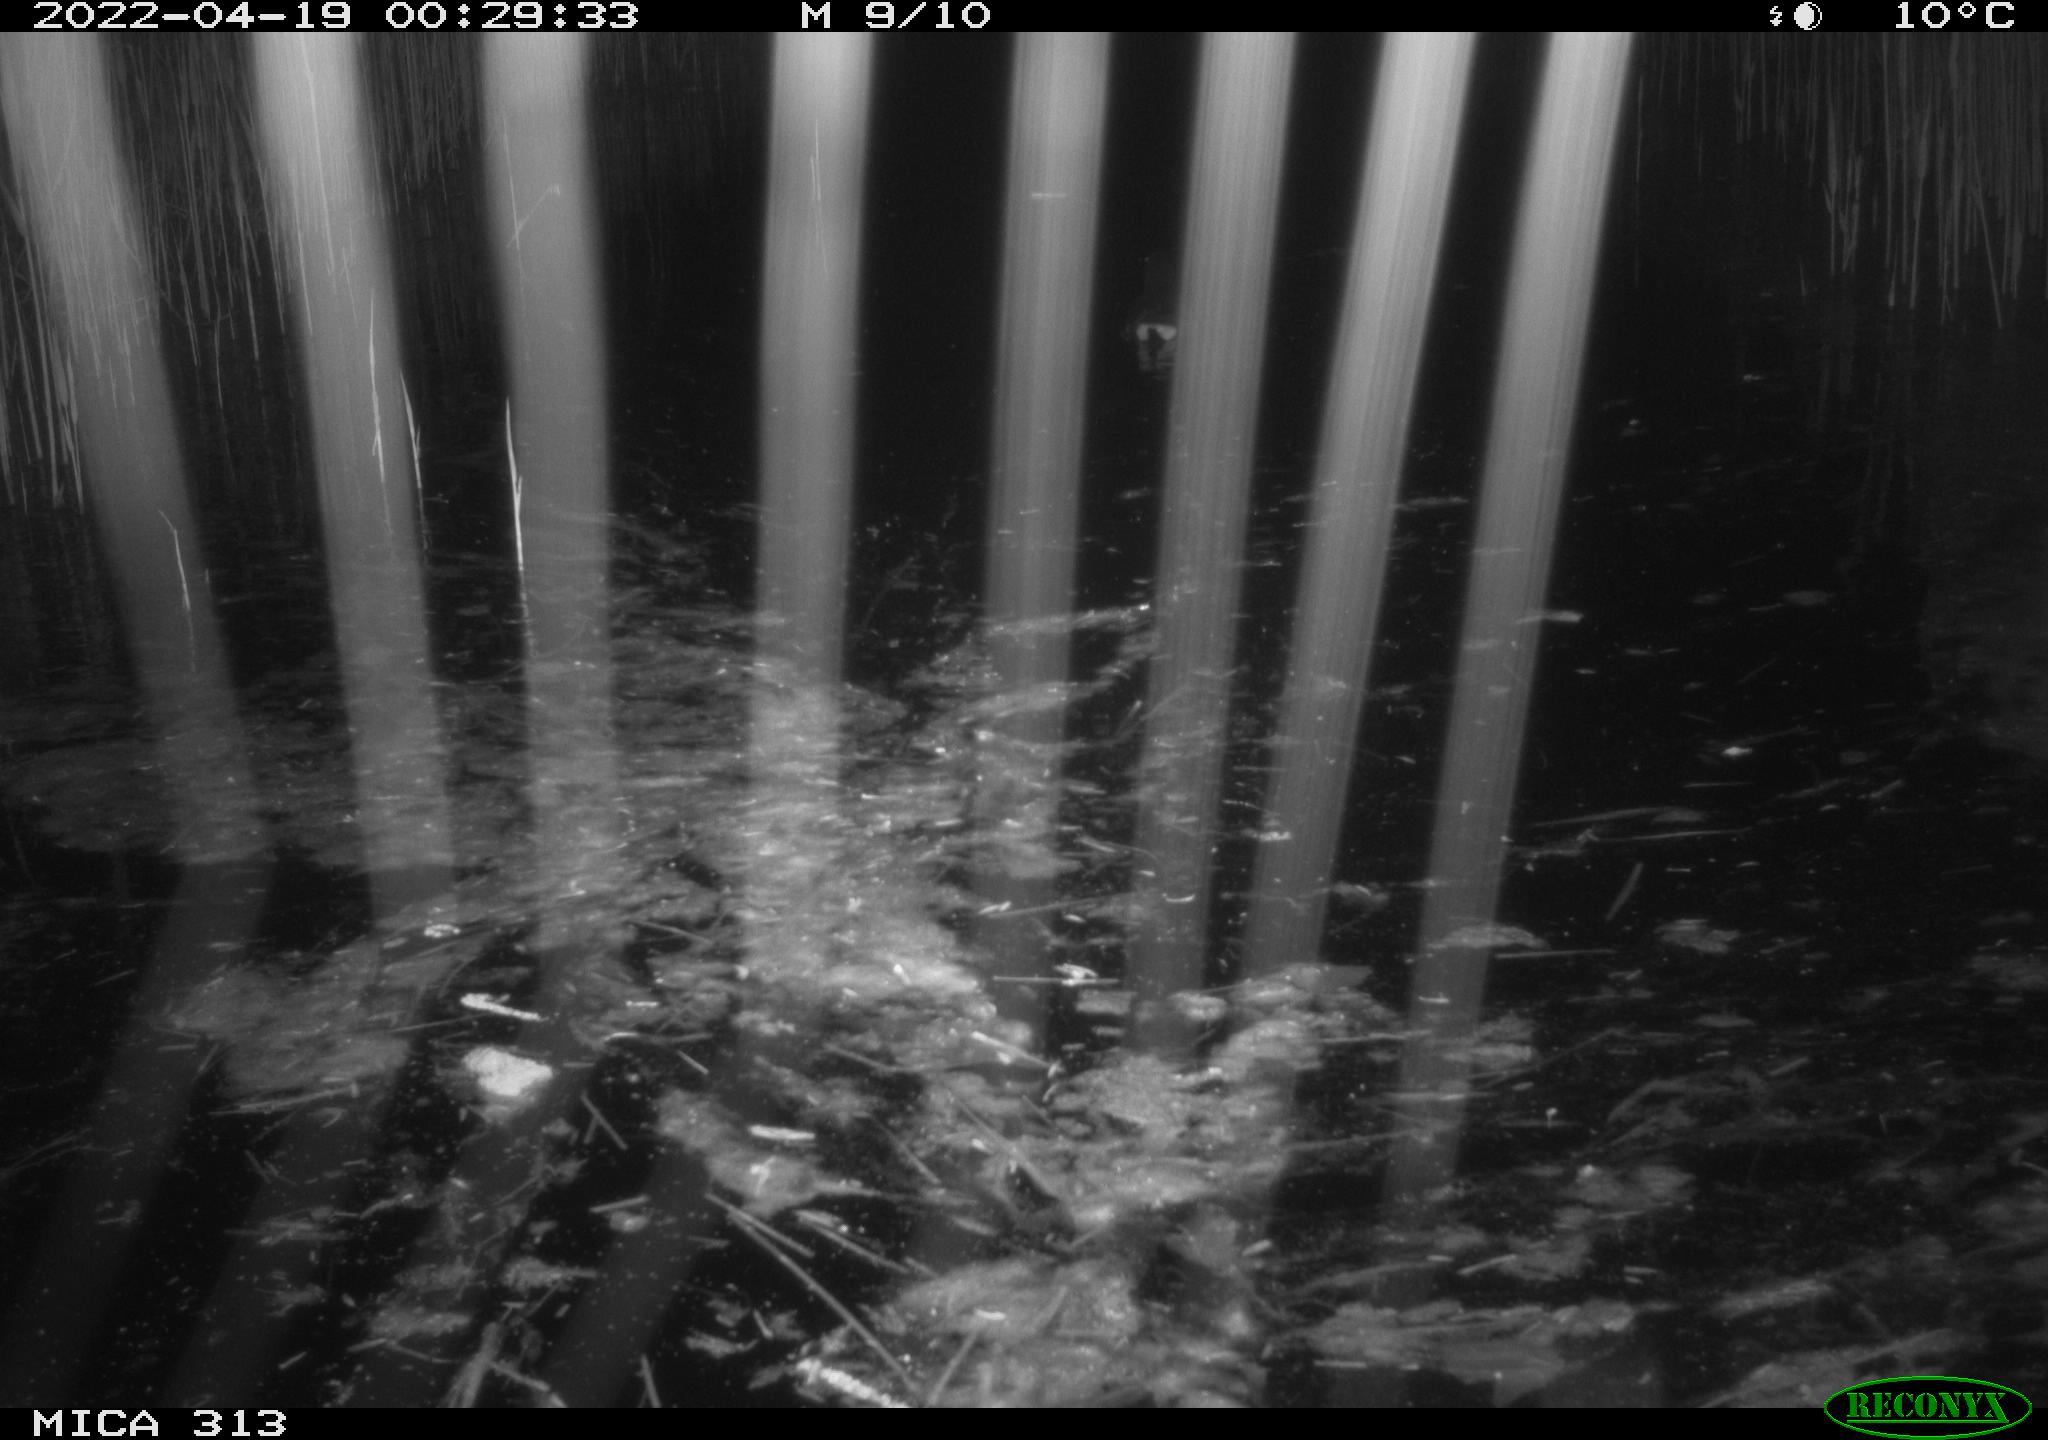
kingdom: Animalia
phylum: Chordata
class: Aves
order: Gruiformes
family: Rallidae
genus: Gallinula
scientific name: Gallinula chloropus
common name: Common moorhen
